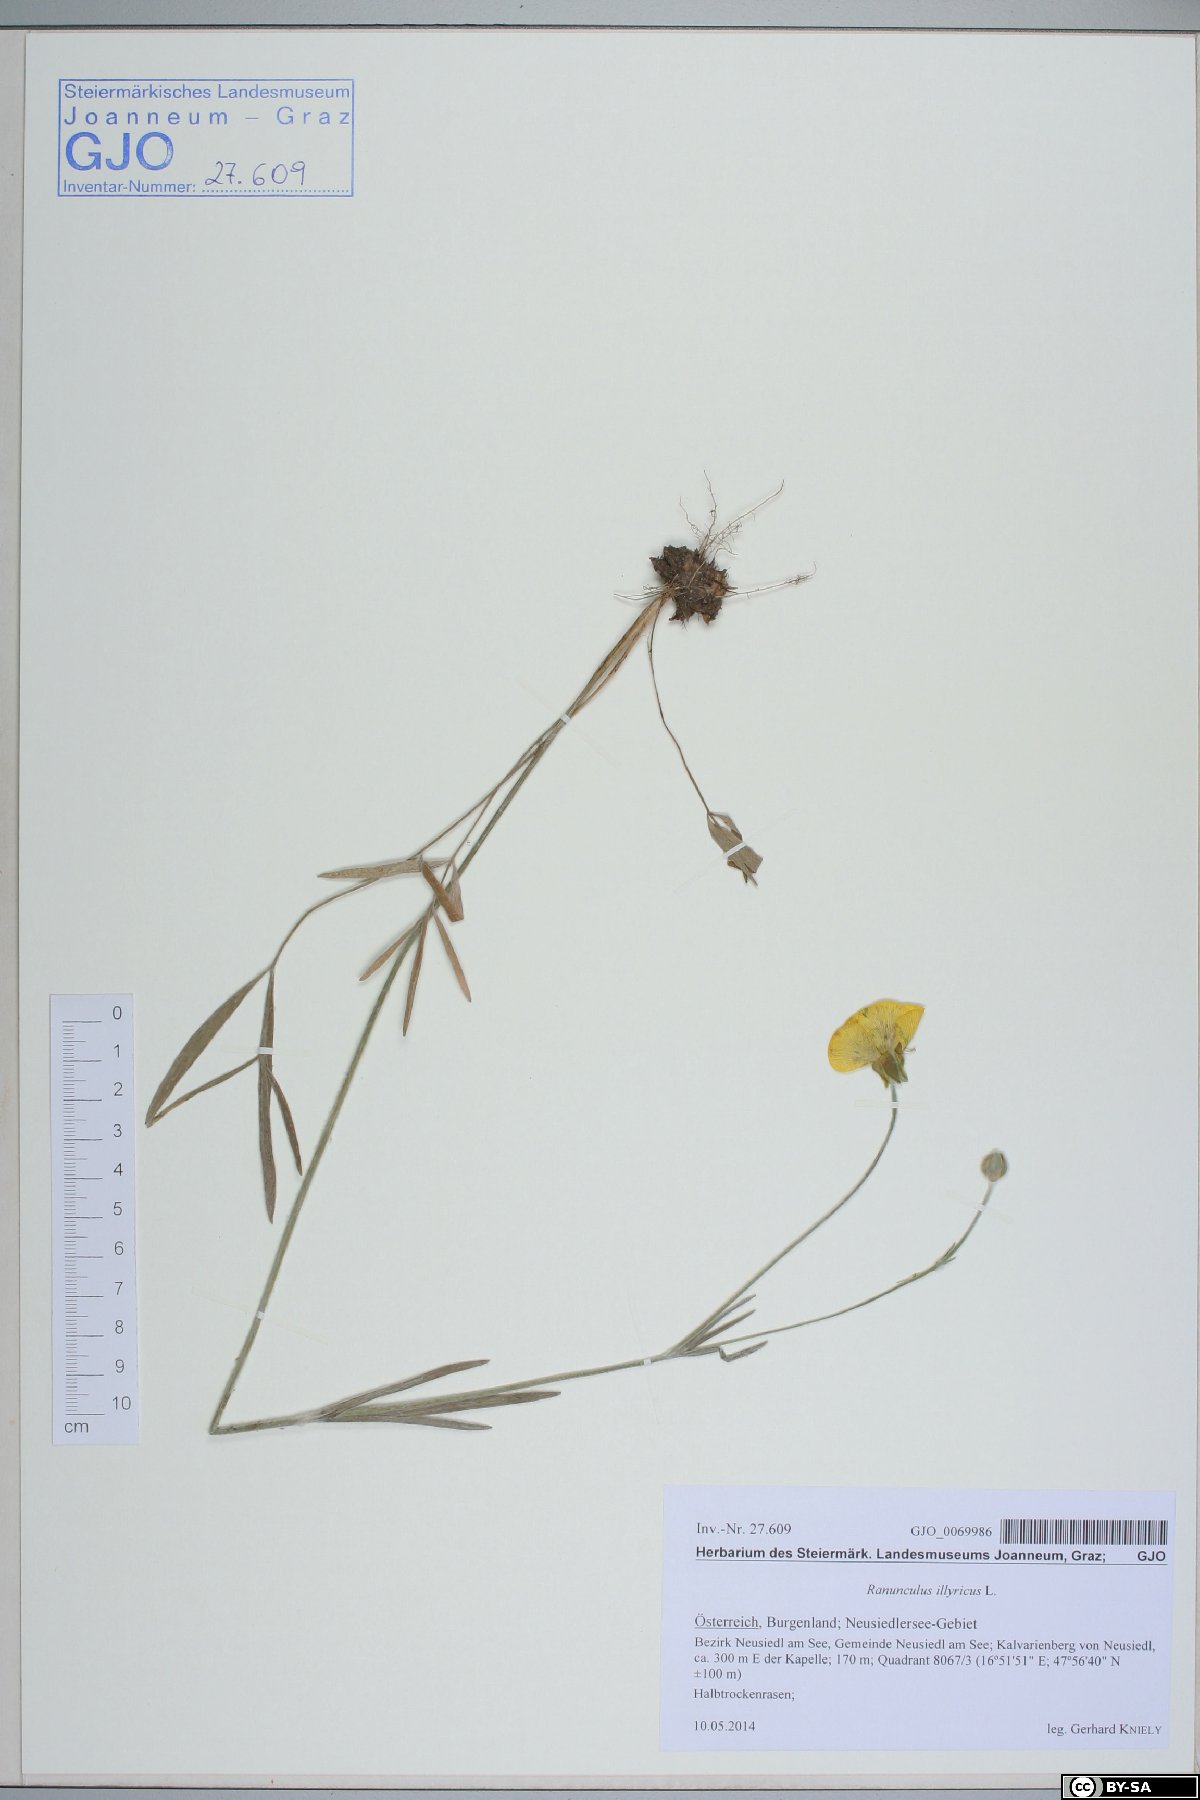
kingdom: Plantae
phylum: Tracheophyta
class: Magnoliopsida
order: Ranunculales
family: Ranunculaceae
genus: Ranunculus
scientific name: Ranunculus illyricus
